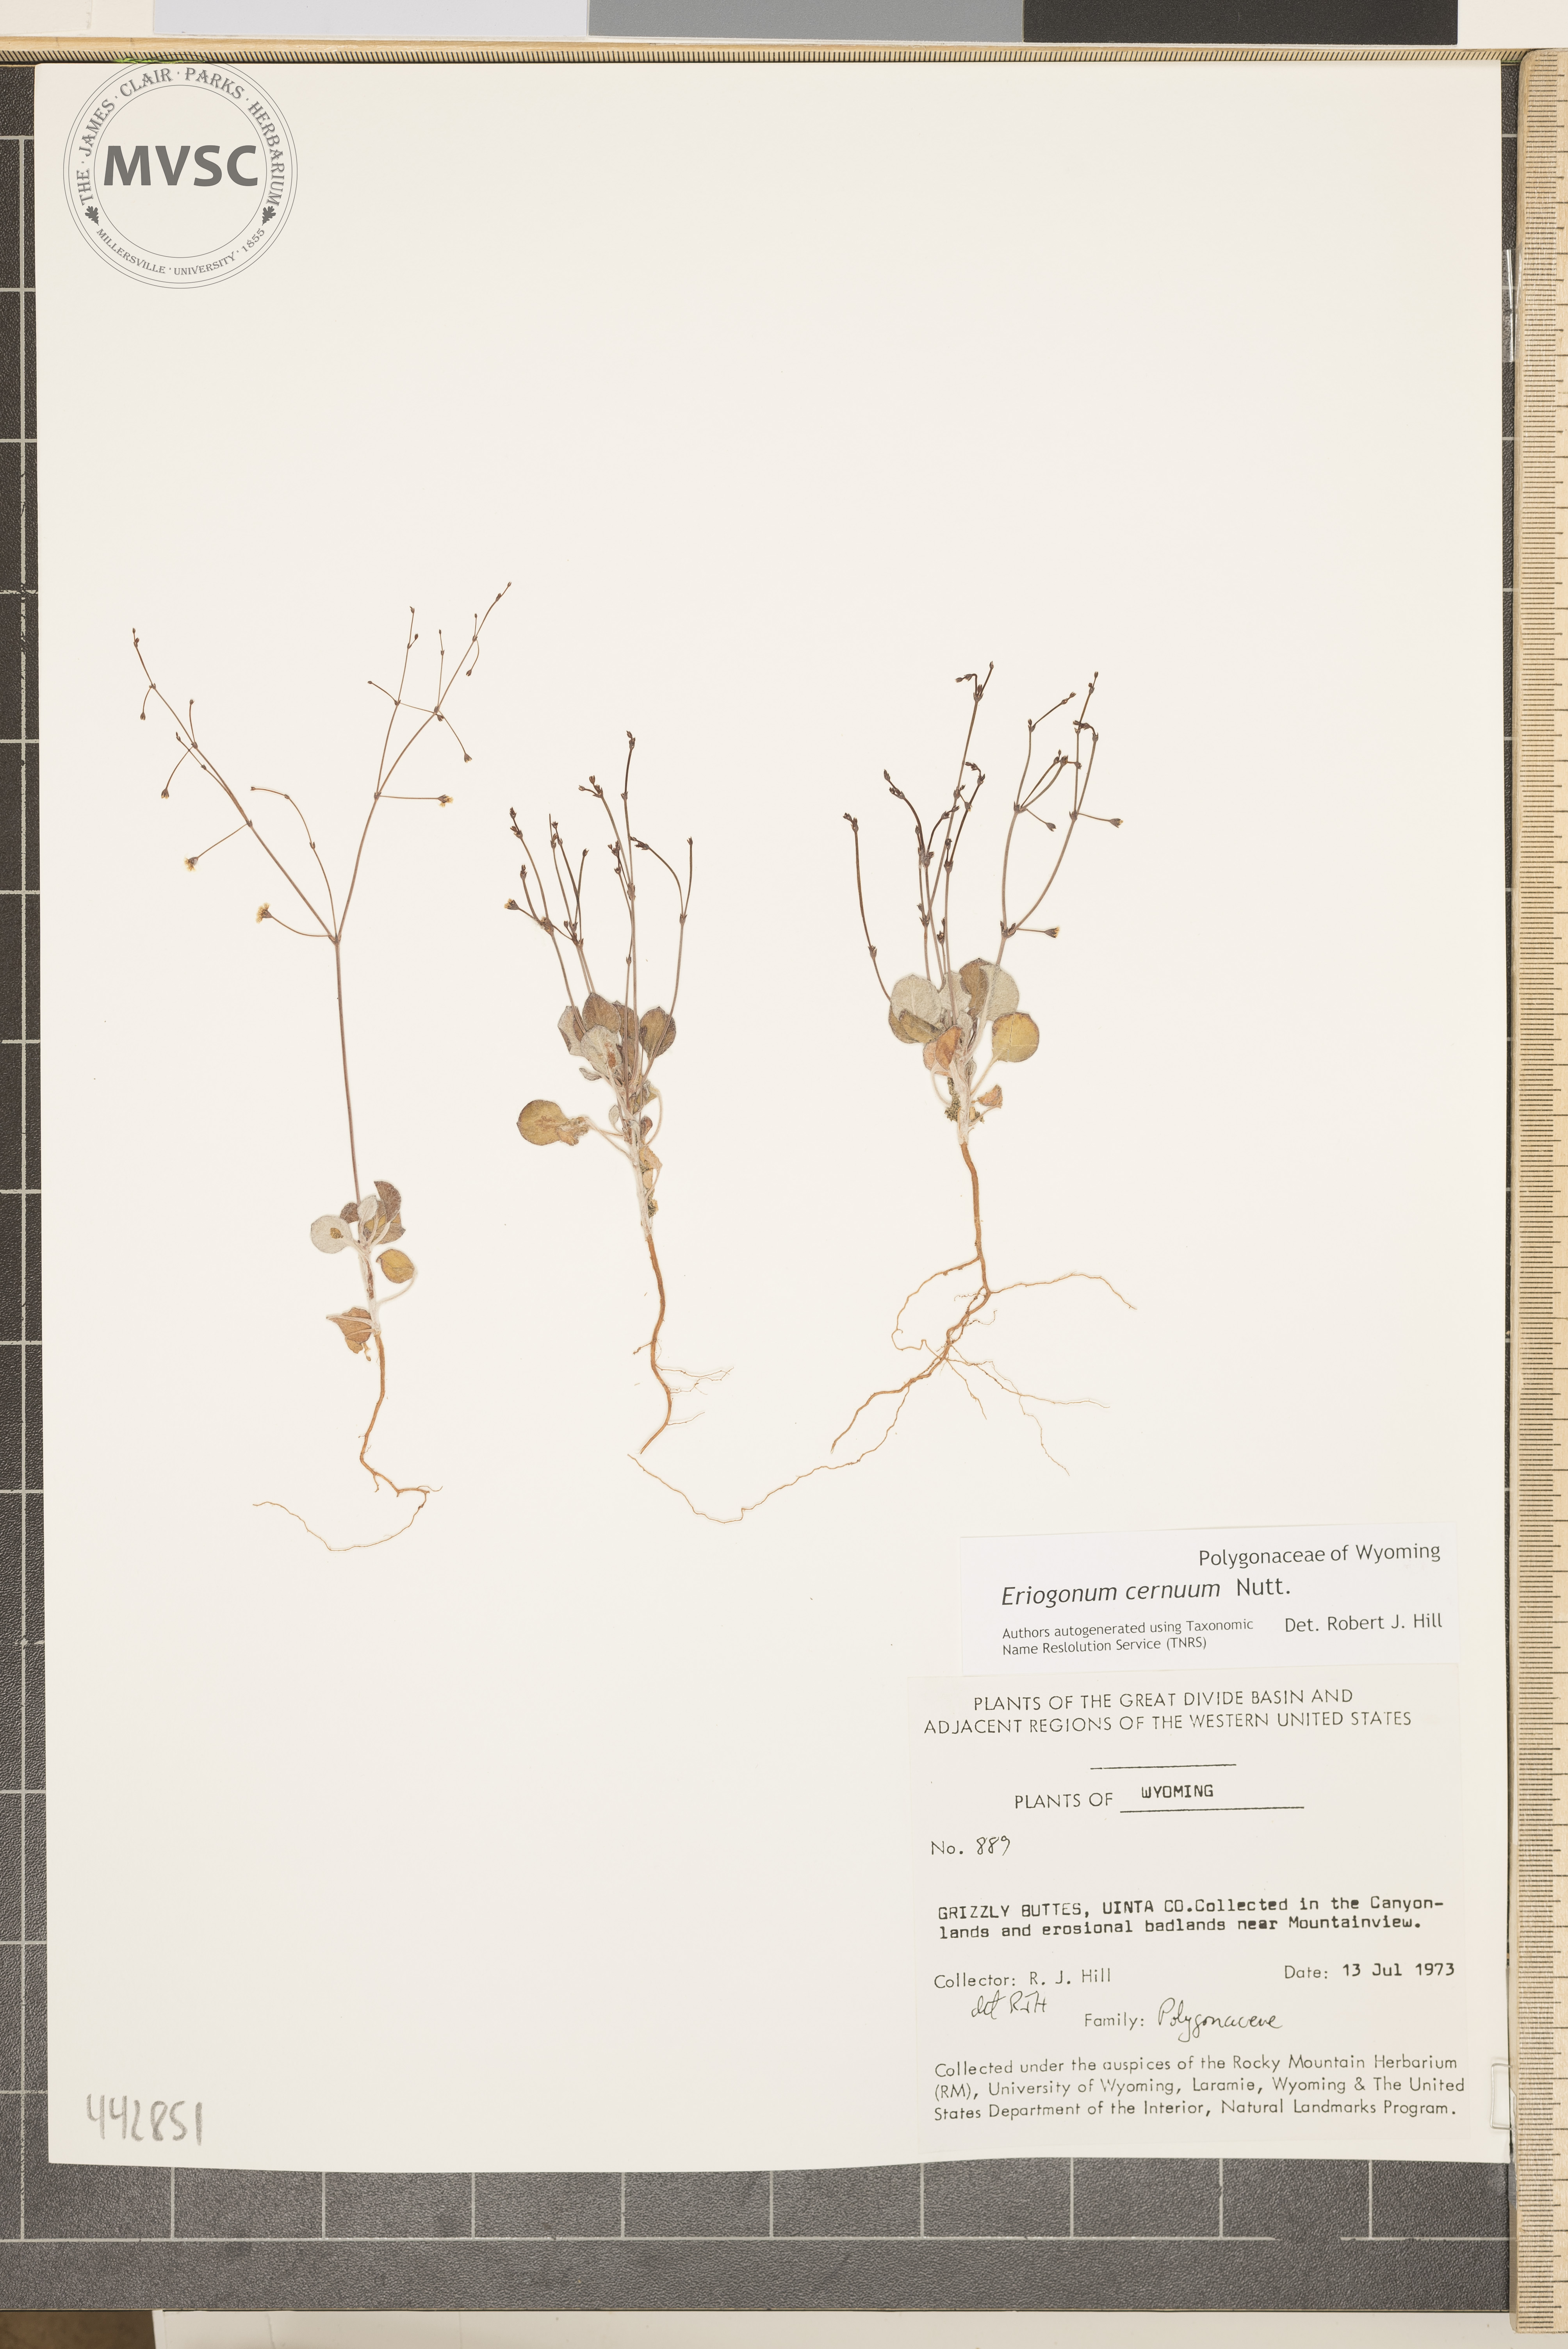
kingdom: Plantae
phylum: Tracheophyta
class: Magnoliopsida
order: Caryophyllales
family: Polygonaceae
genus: Eriogonum
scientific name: Eriogonum cernuum
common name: Nodding wild buckwheat
